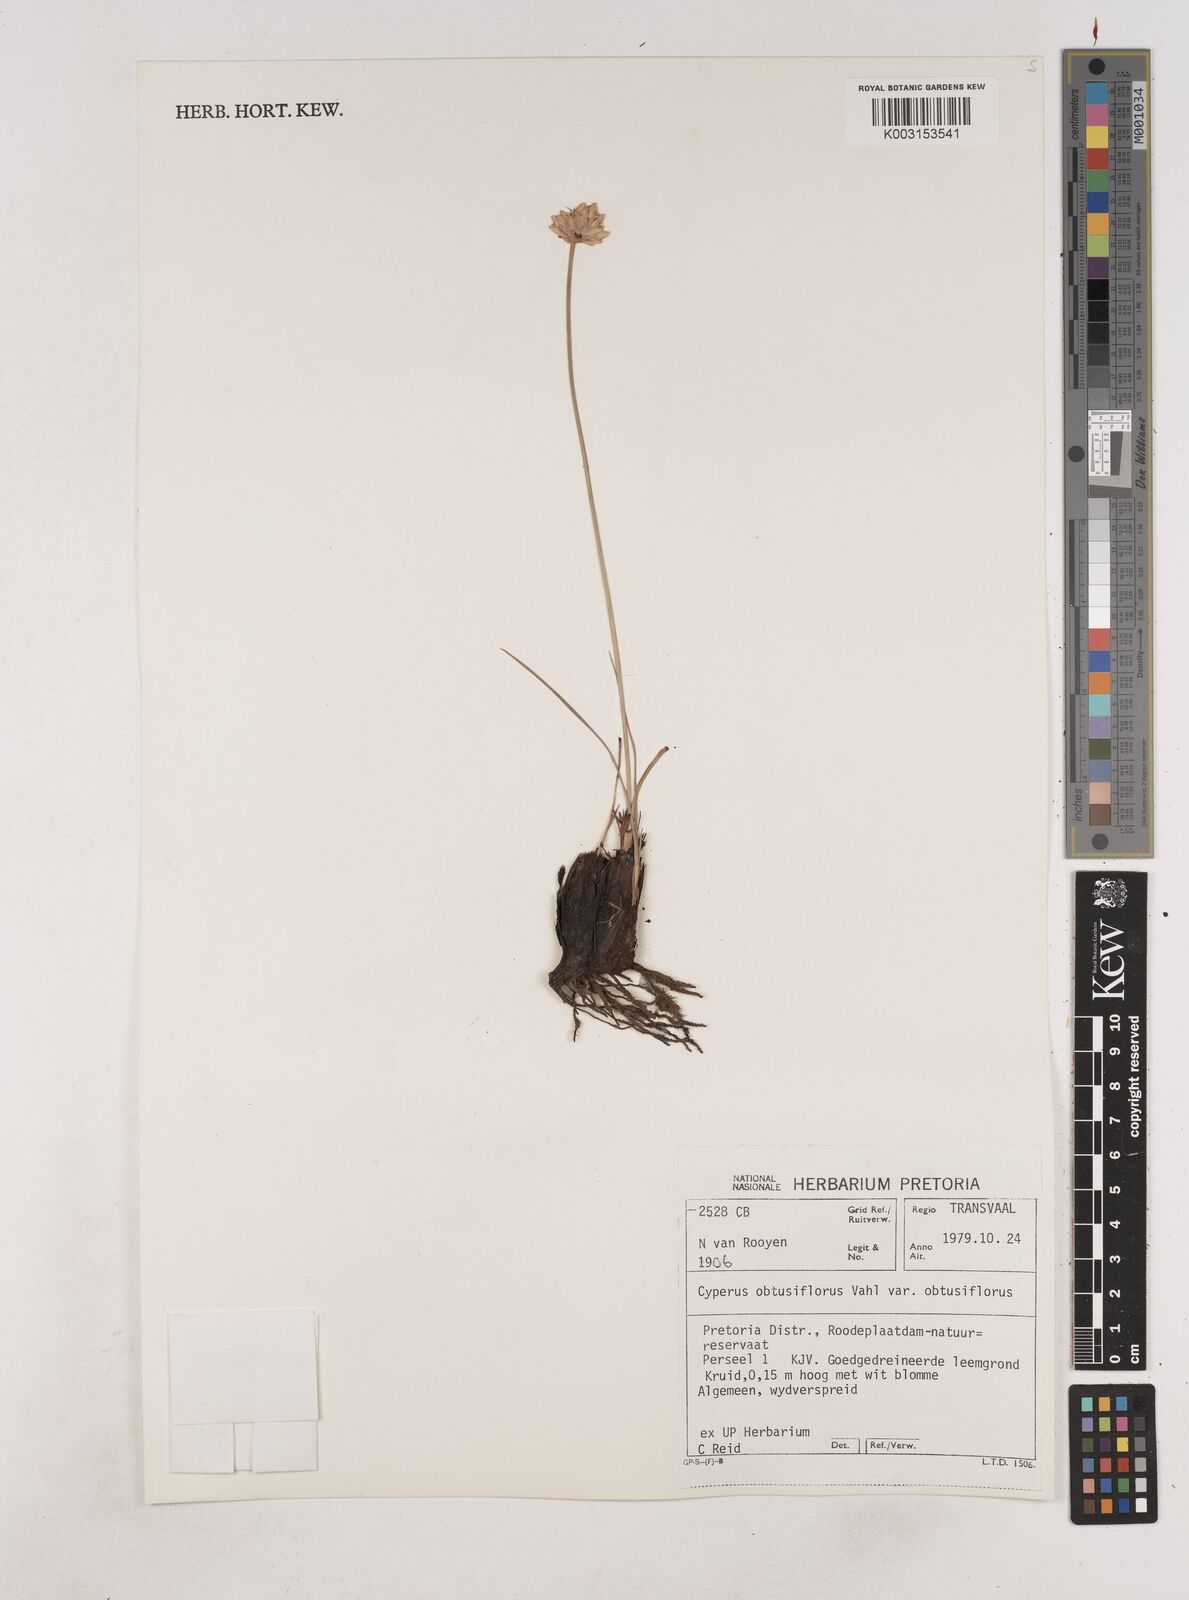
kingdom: Plantae
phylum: Tracheophyta
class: Liliopsida
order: Poales
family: Cyperaceae
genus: Cyperus
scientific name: Cyperus niveus
